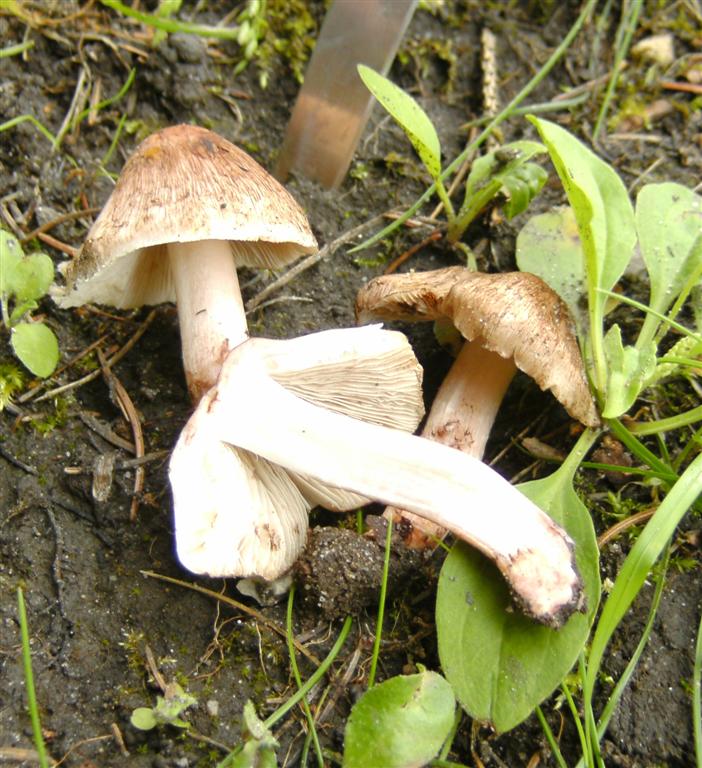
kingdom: Fungi
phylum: Basidiomycota
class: Agaricomycetes
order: Agaricales
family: Inocybaceae
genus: Inosperma
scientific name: Inosperma adaequatum
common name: vinrød trævlhat
